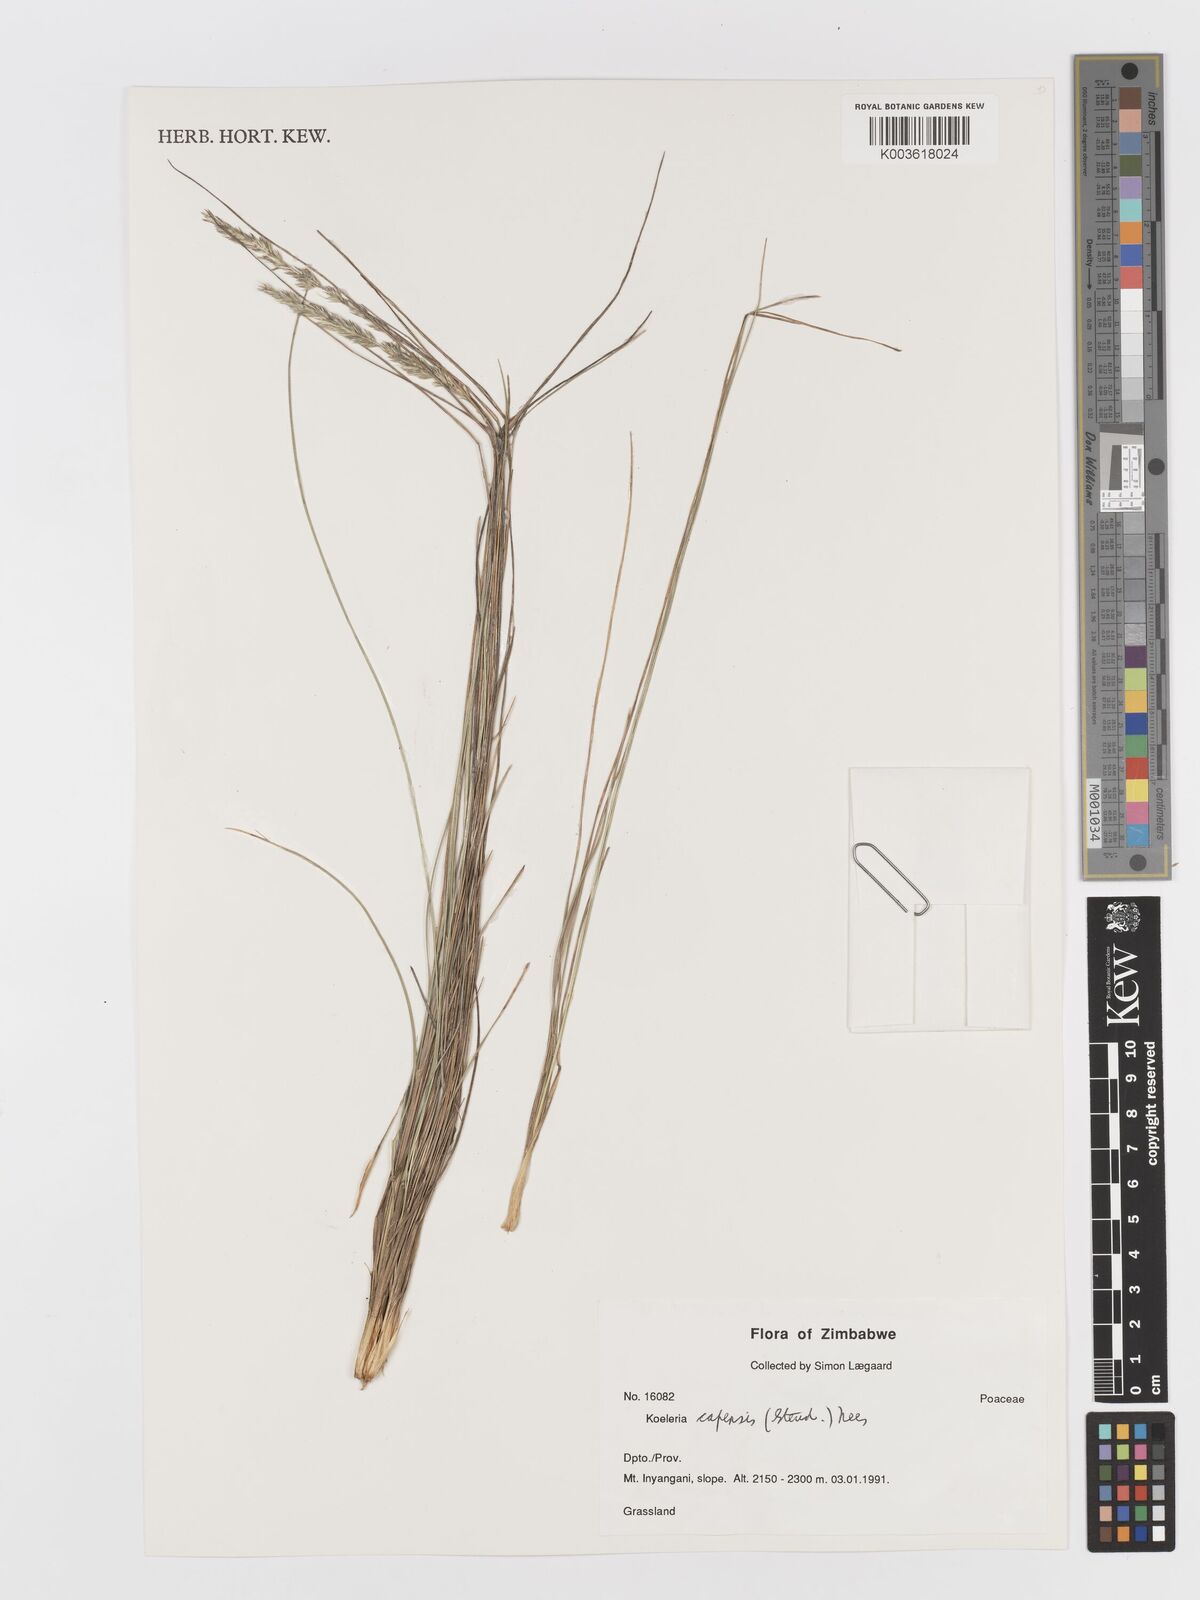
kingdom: Plantae
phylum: Tracheophyta
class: Liliopsida
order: Poales
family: Poaceae
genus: Koeleria
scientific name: Koeleria capensis
